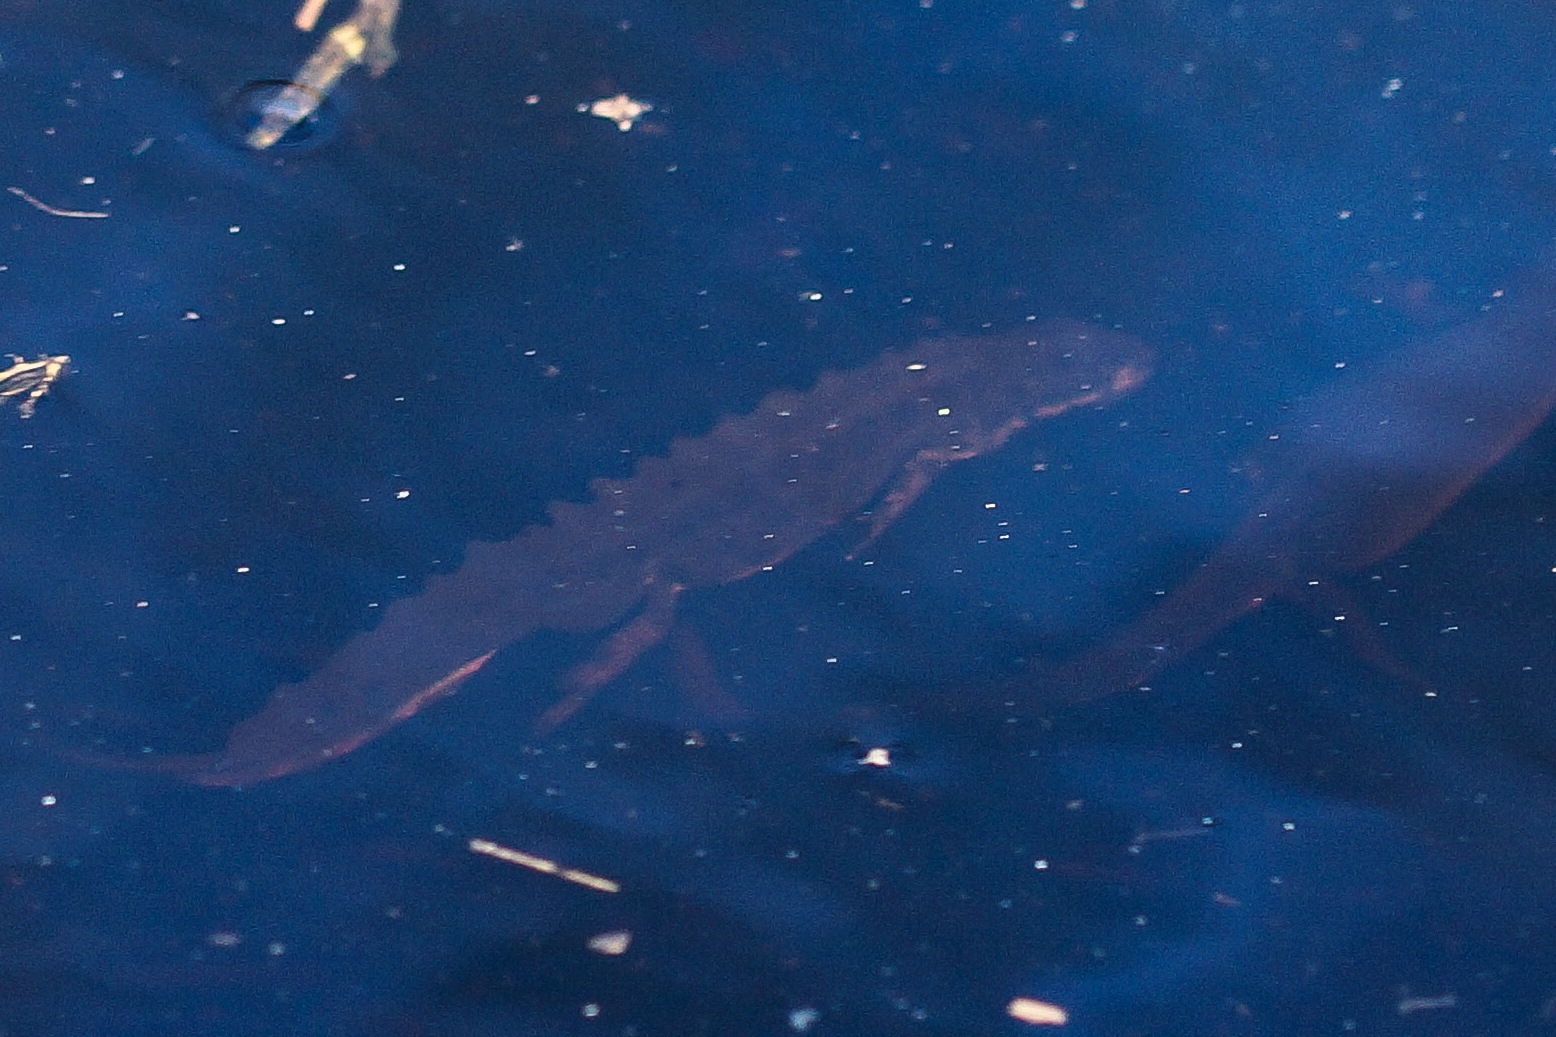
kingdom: Animalia
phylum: Chordata
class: Amphibia
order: Caudata
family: Salamandridae
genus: Lissotriton
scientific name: Lissotriton vulgaris
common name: Lille vandsalamander
